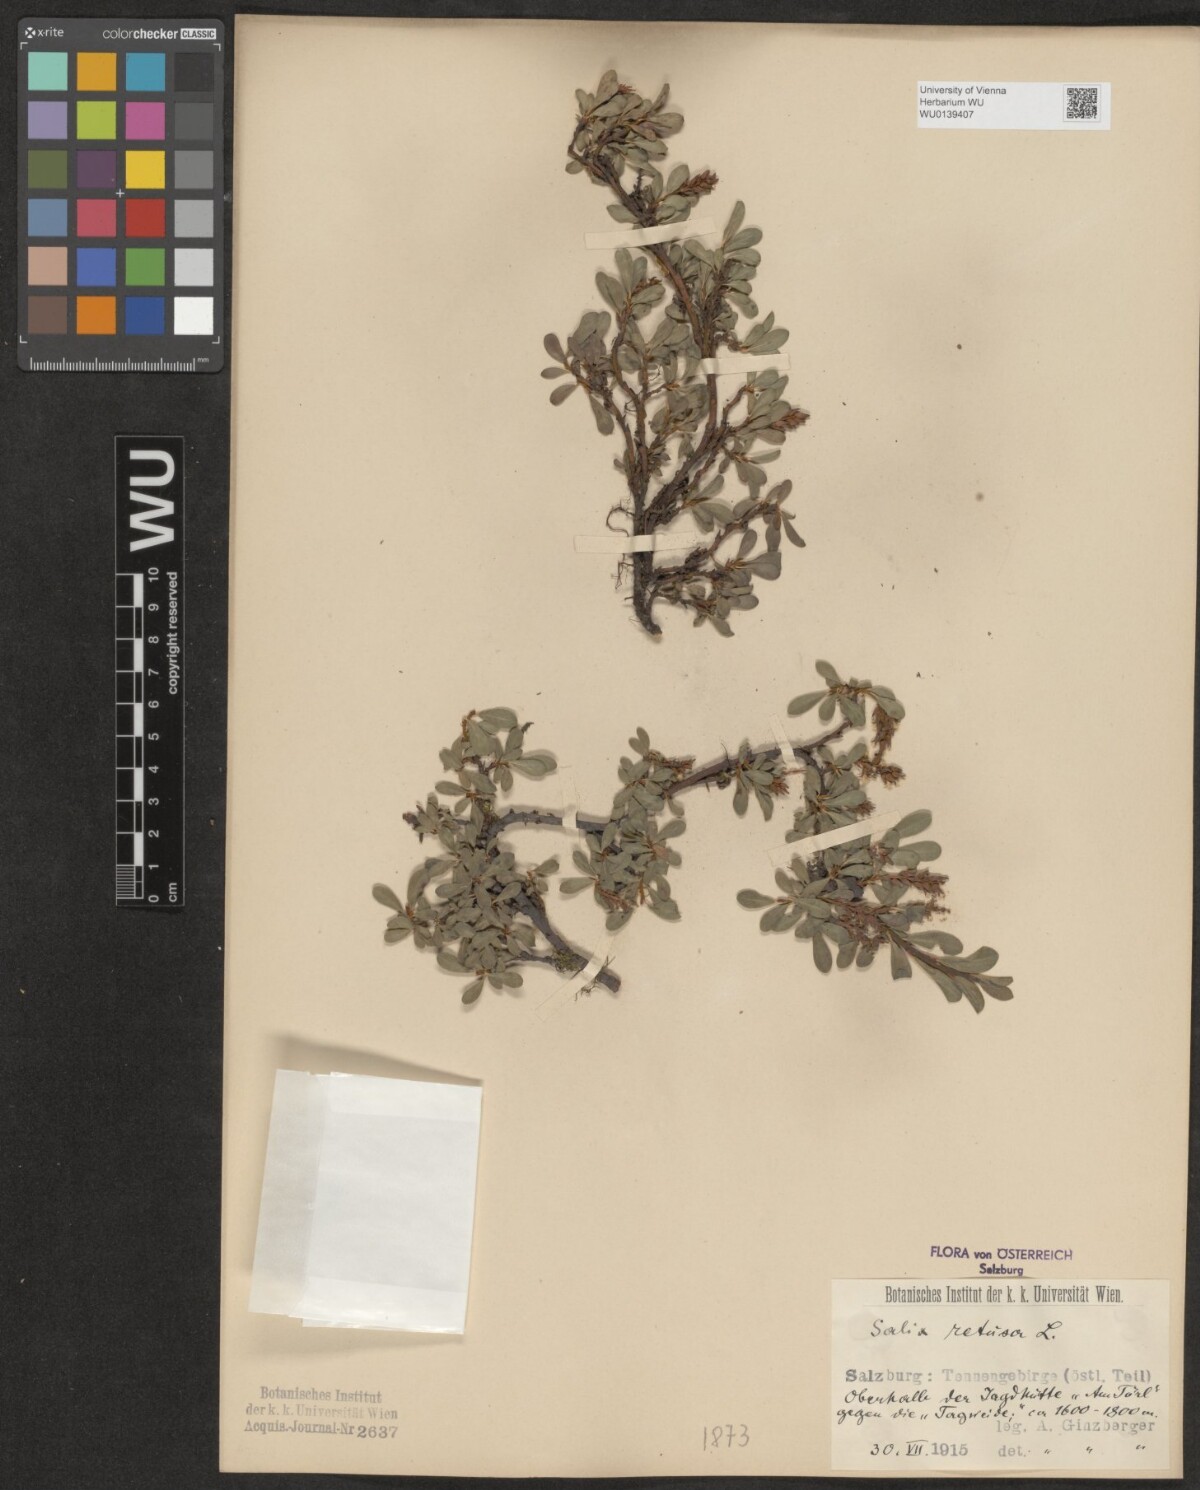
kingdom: Plantae
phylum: Tracheophyta
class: Magnoliopsida
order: Malpighiales
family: Salicaceae
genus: Salix
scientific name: Salix retusa
